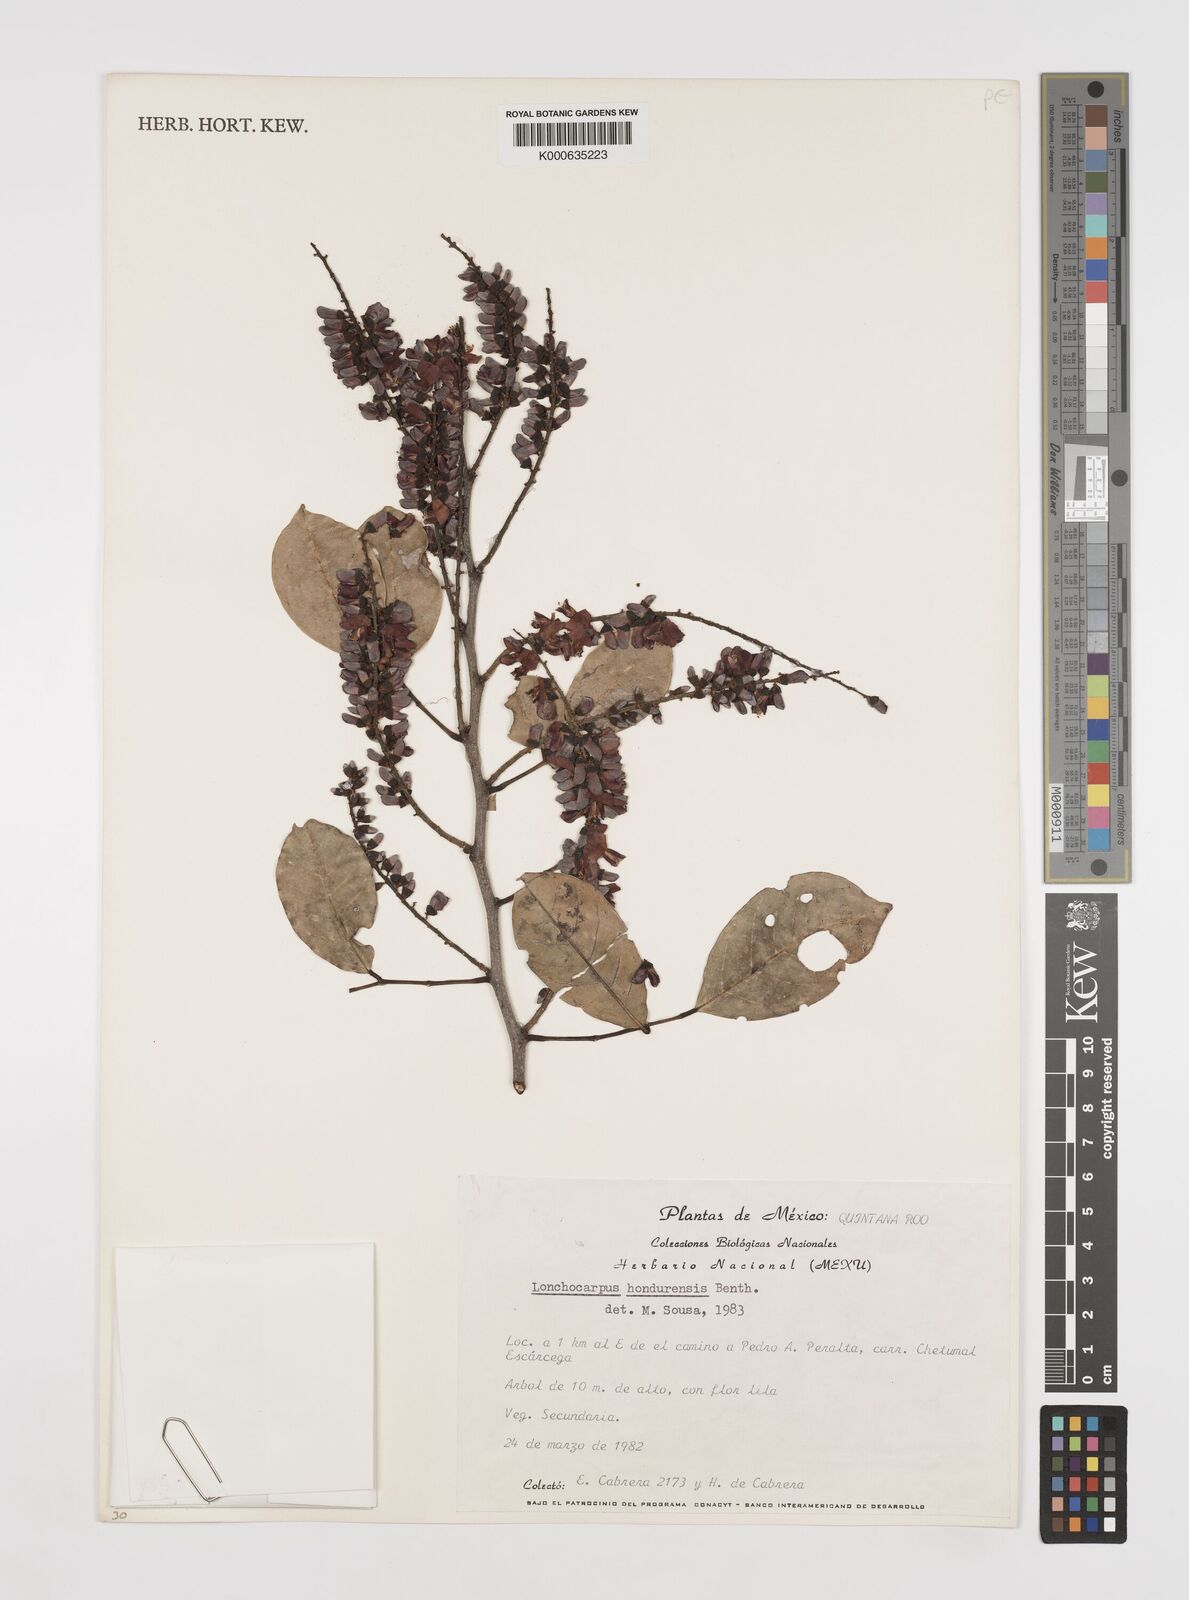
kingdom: Plantae
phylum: Tracheophyta
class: Magnoliopsida
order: Fabales
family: Fabaceae
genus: Lonchocarpus
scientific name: Lonchocarpus hondurensis
